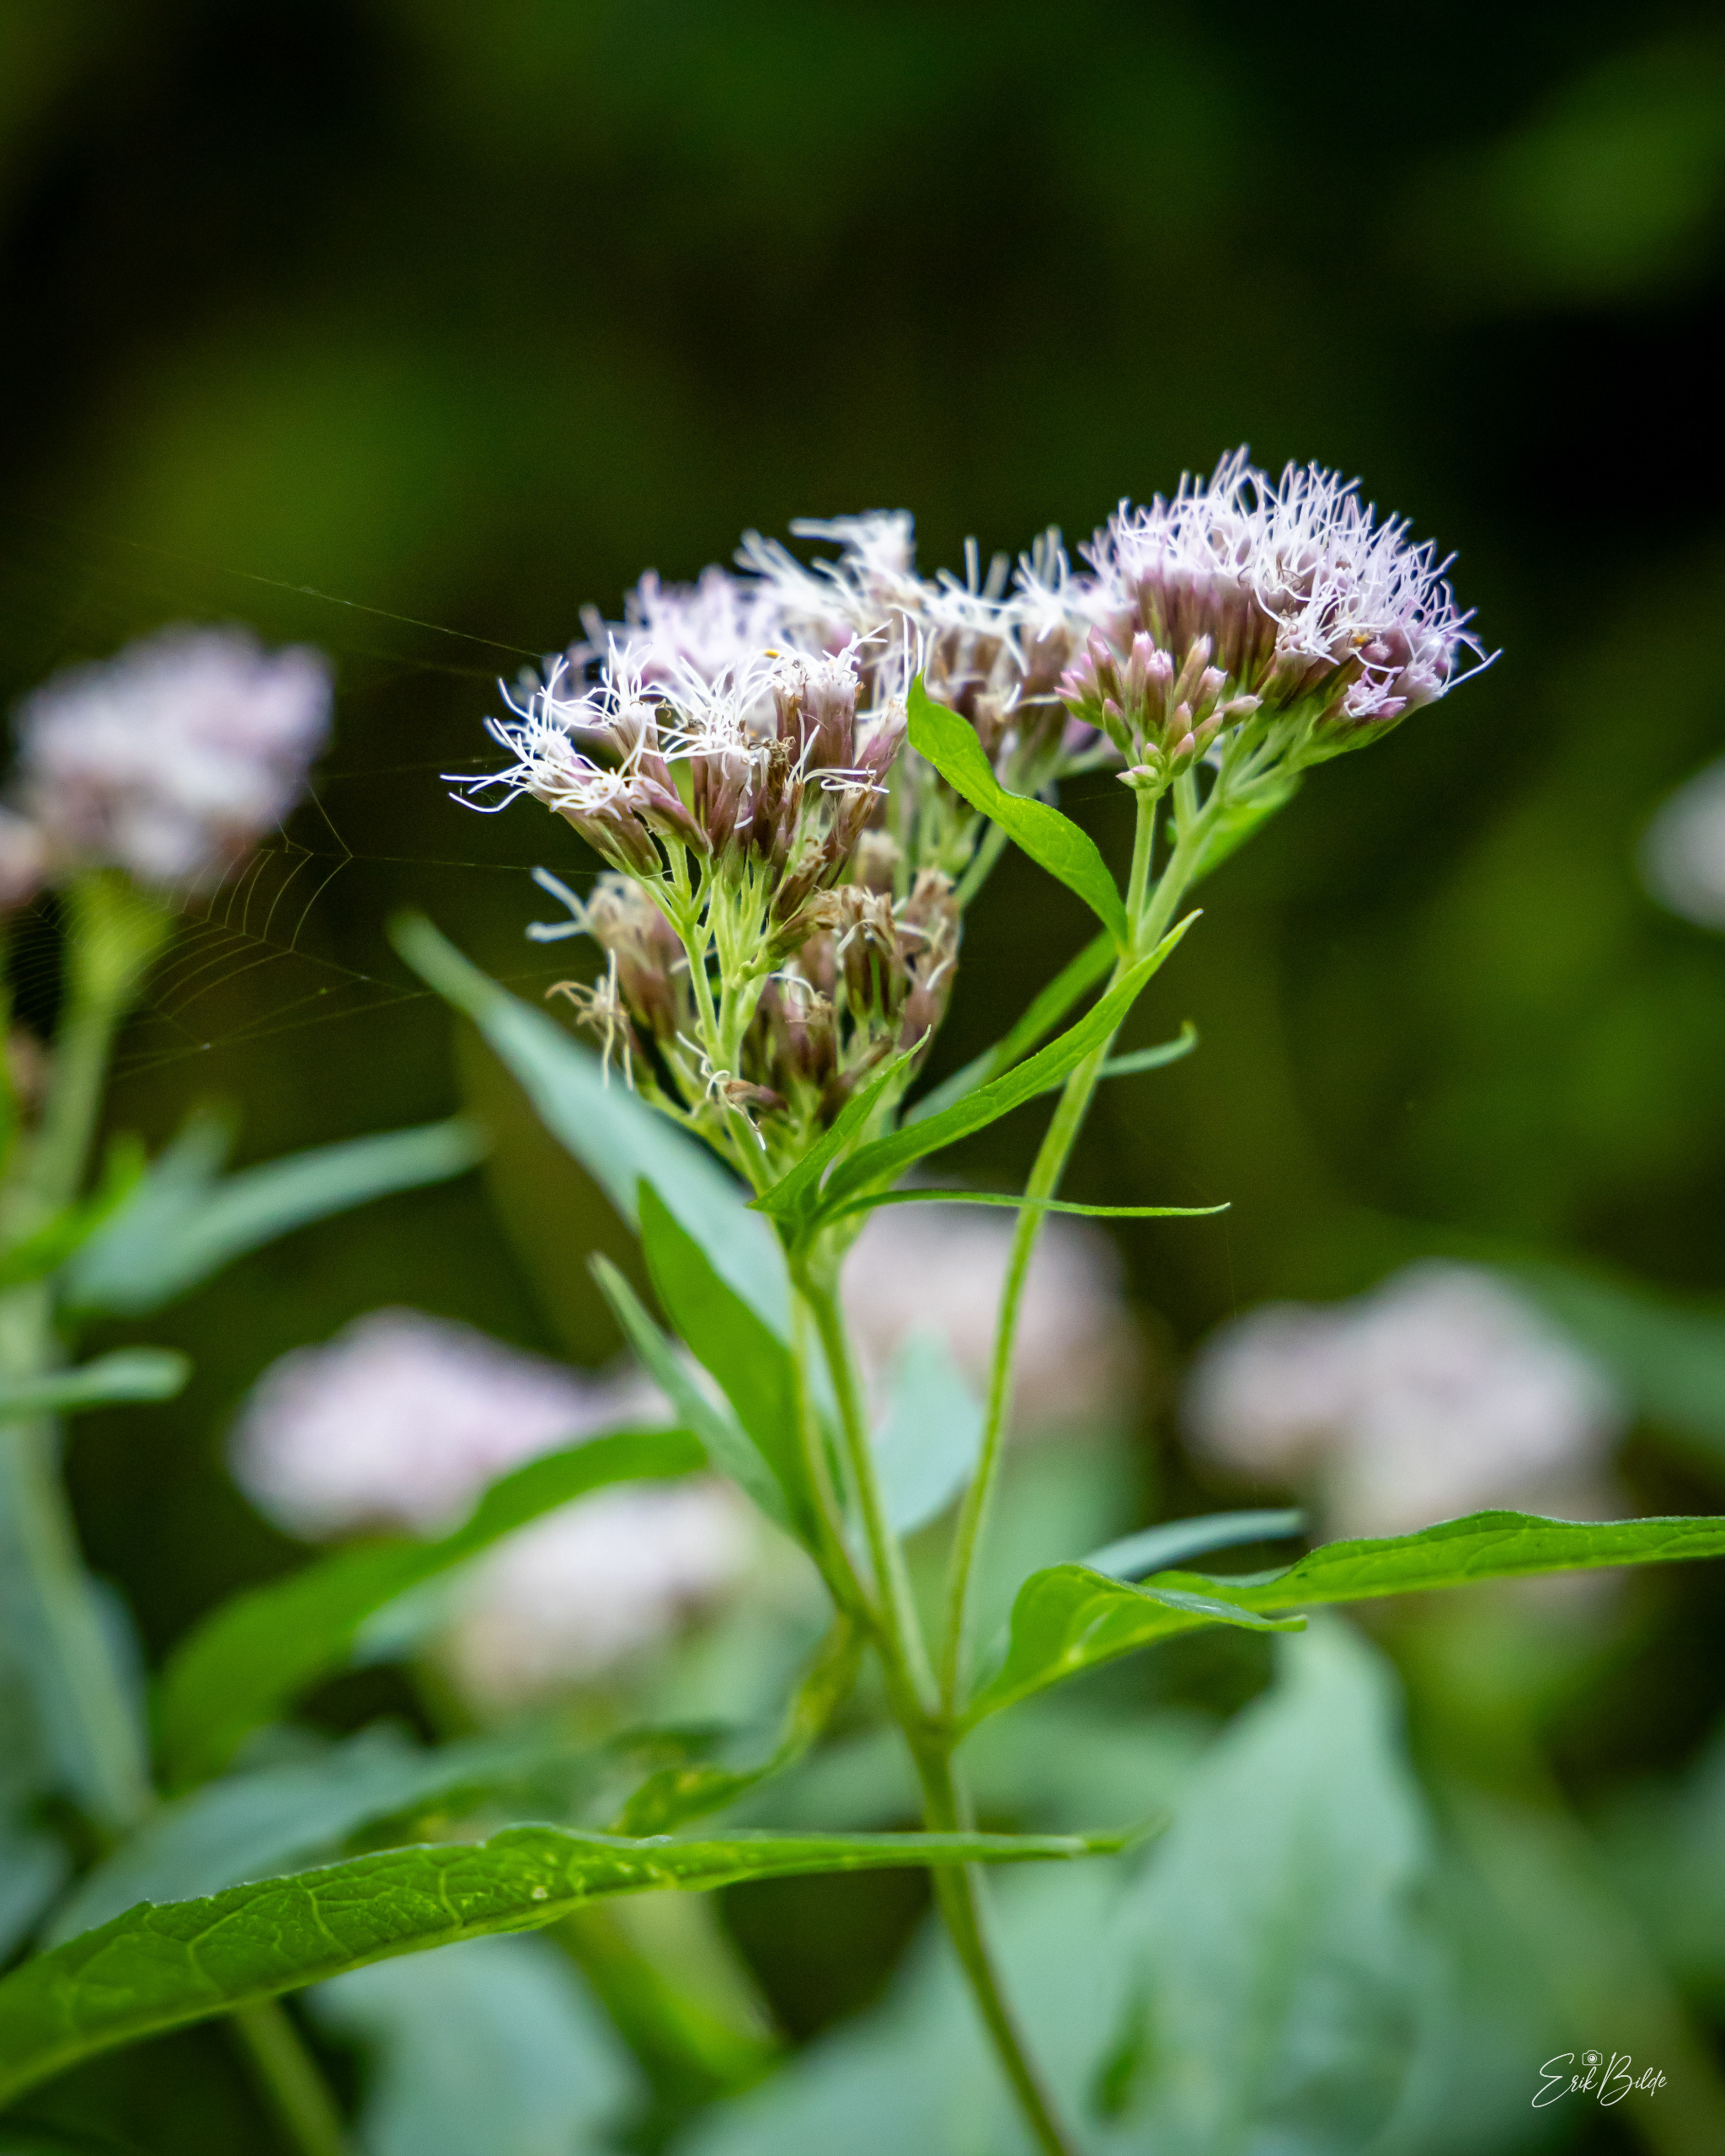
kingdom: Plantae
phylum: Tracheophyta
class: Magnoliopsida
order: Asterales
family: Asteraceae
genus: Eupatorium
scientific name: Eupatorium cannabinum
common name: Hjortetrøst
